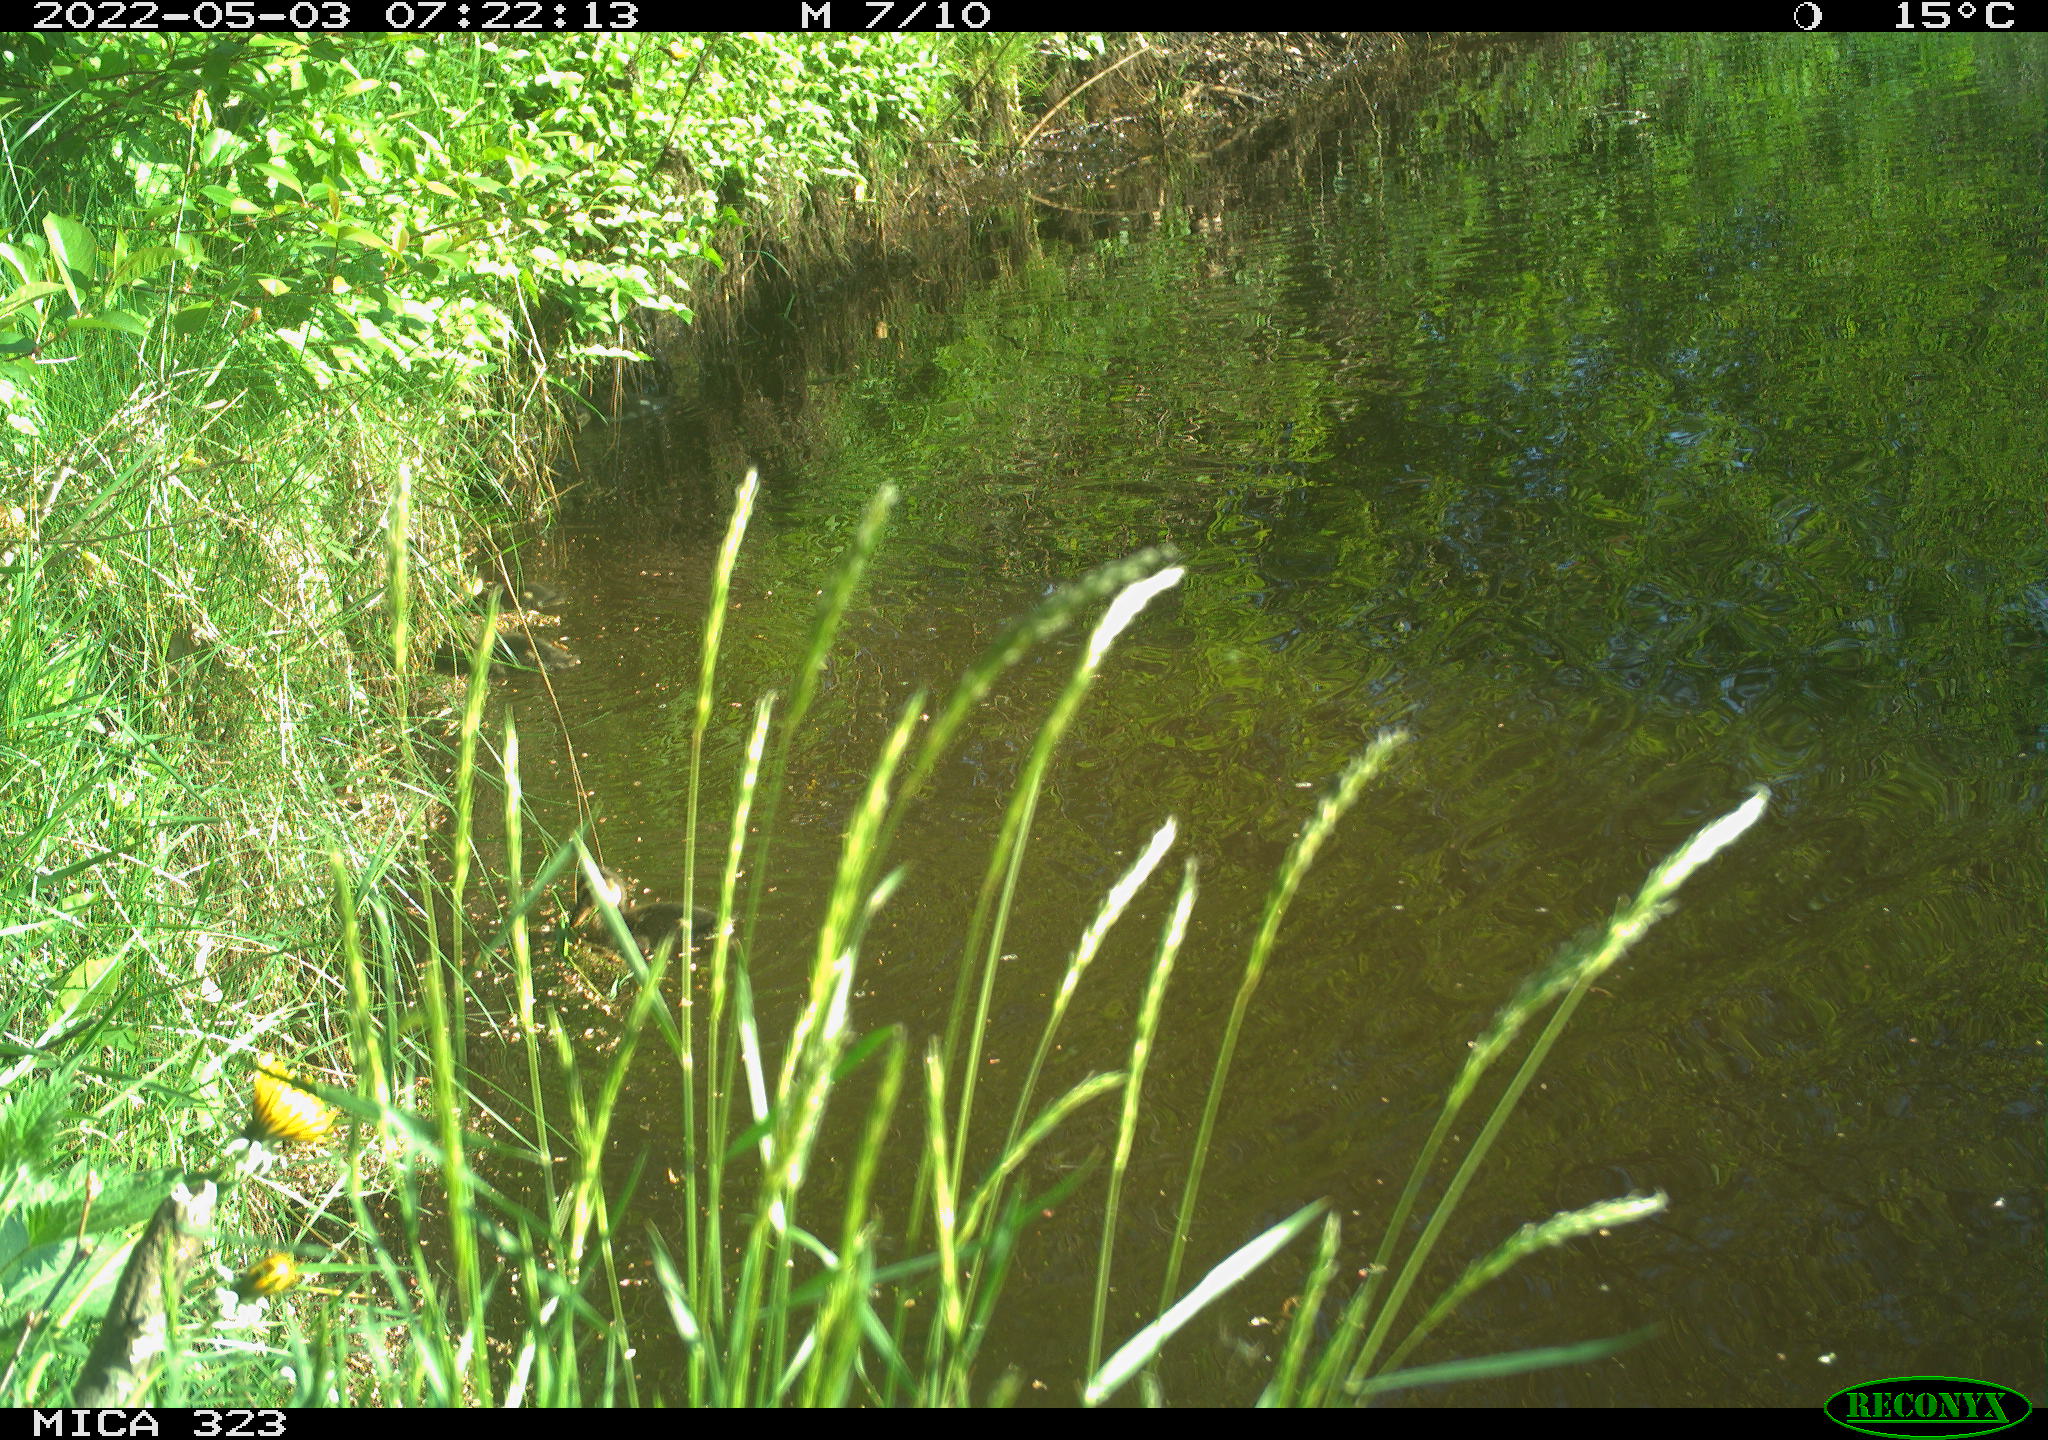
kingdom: Animalia
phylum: Chordata
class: Aves
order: Anseriformes
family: Anatidae
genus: Anas
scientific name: Anas
